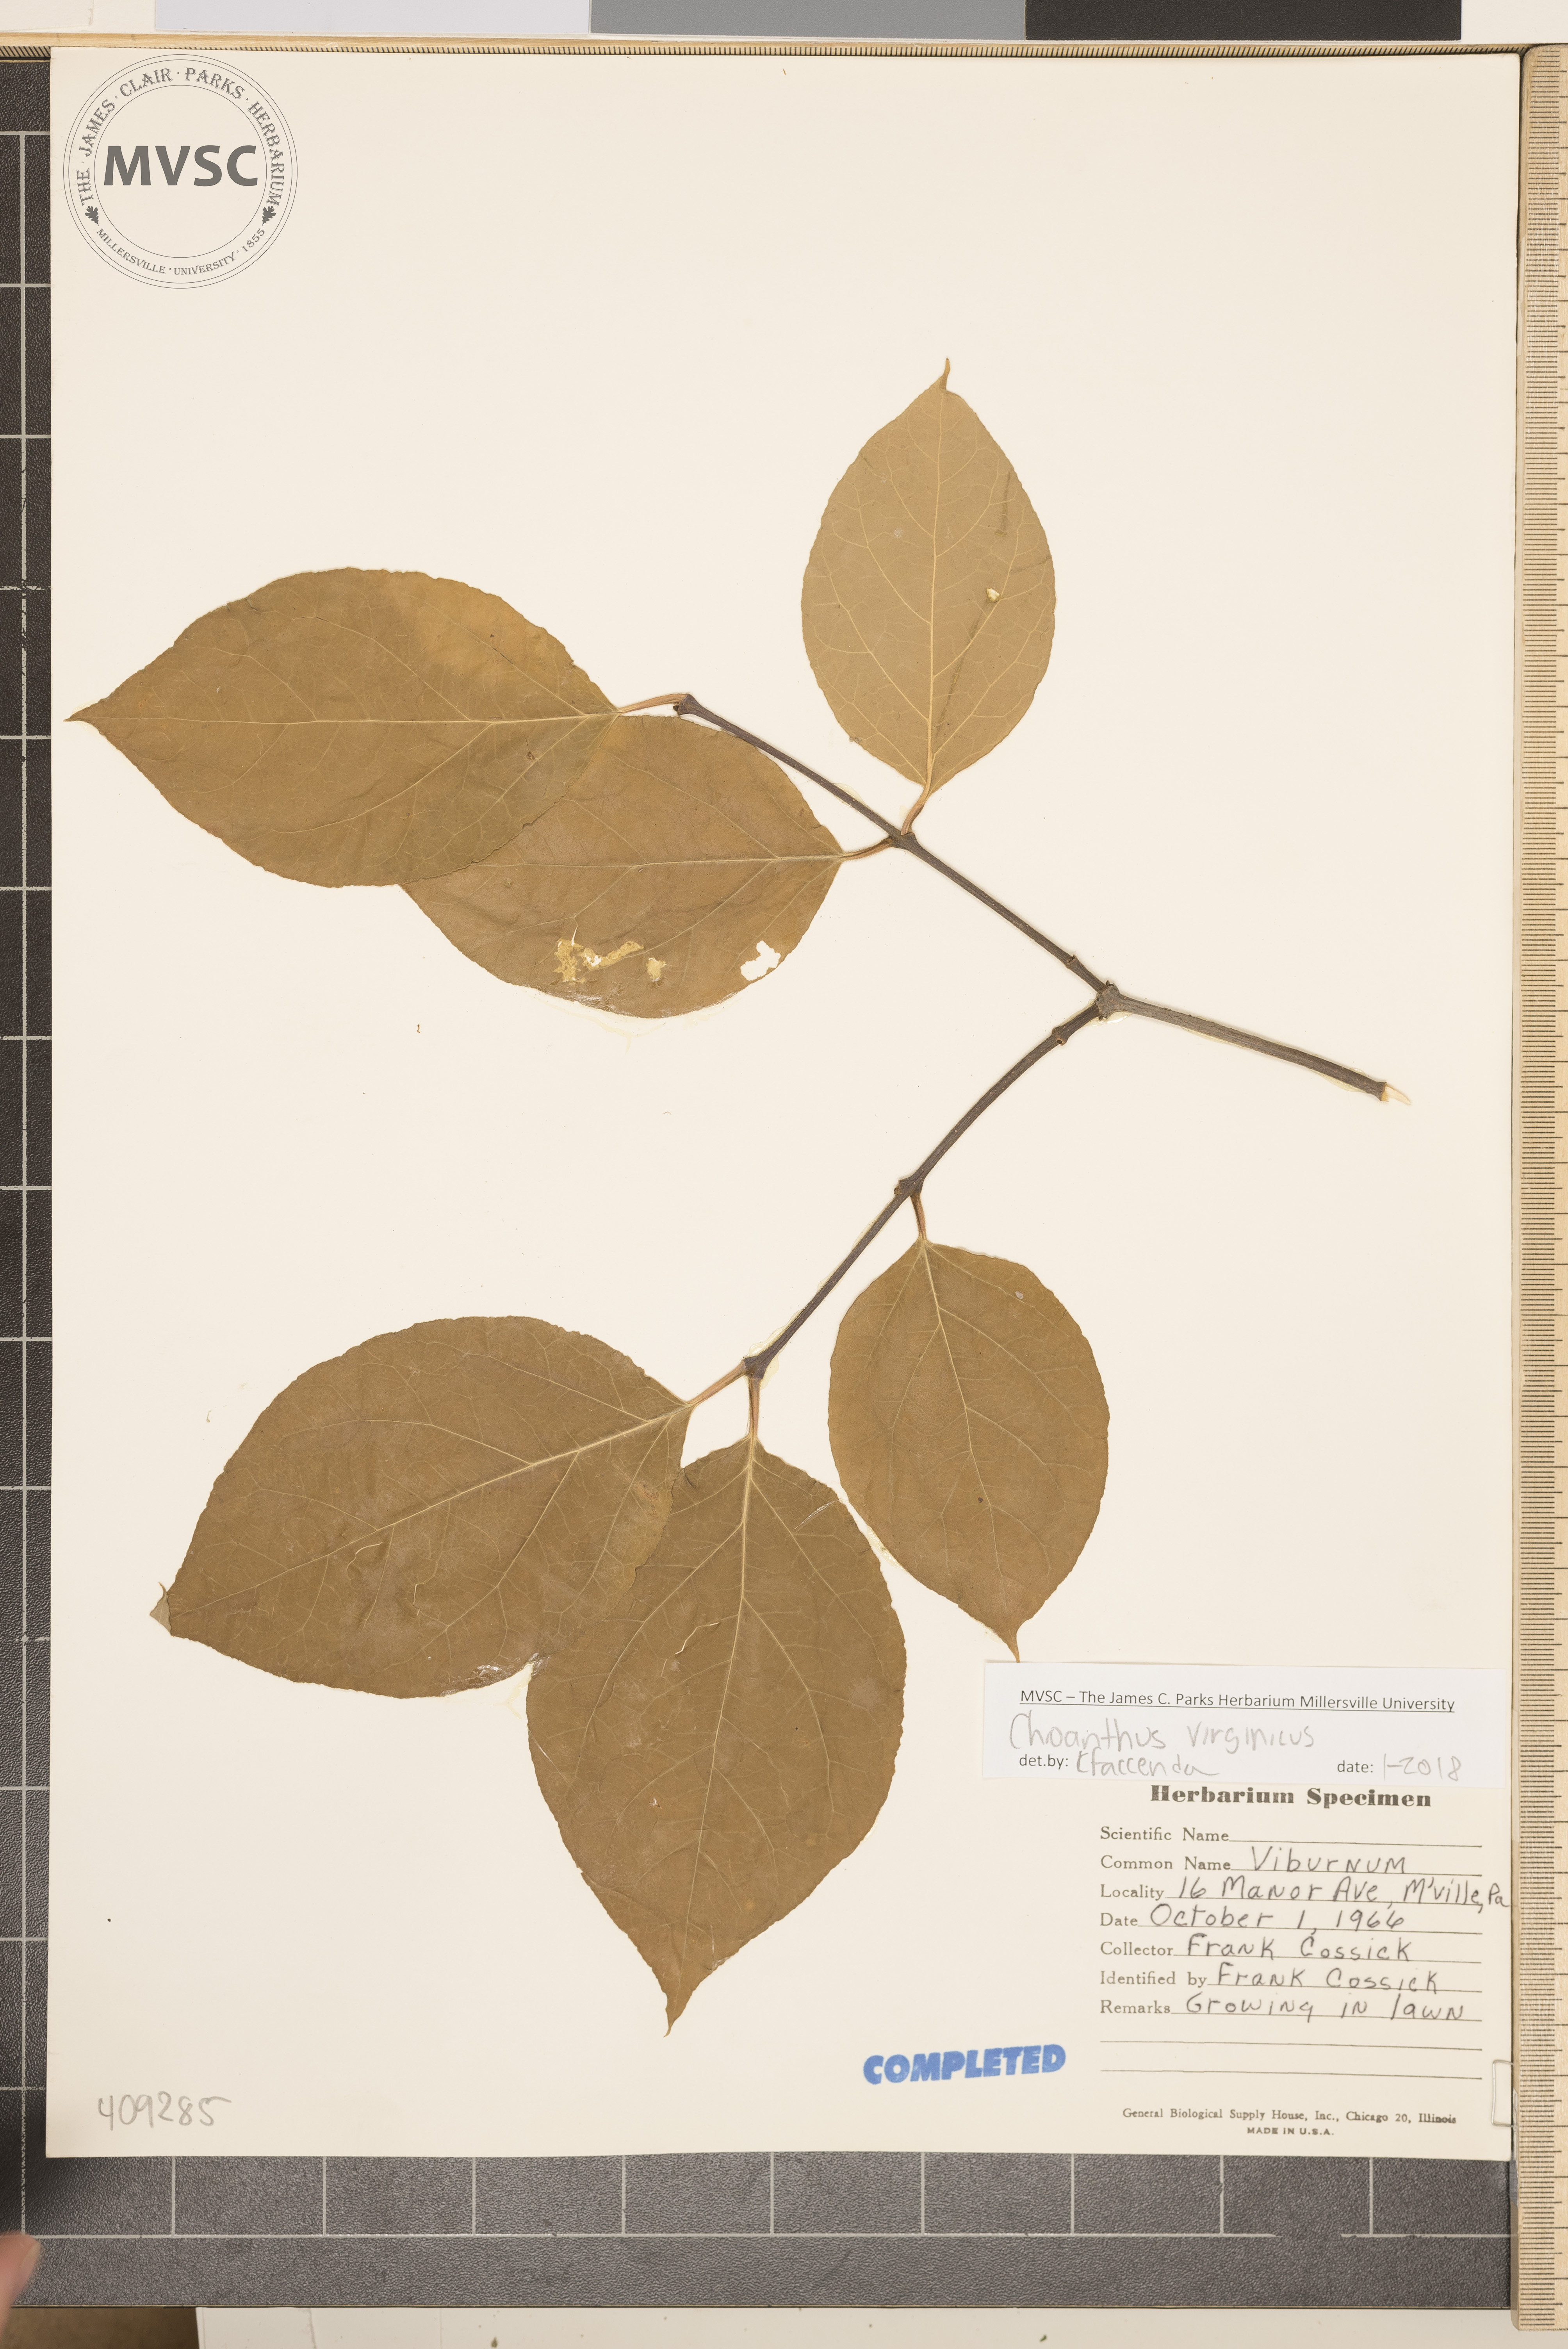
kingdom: Plantae
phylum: Tracheophyta
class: Magnoliopsida
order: Lamiales
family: Oleaceae
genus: Chionanthus
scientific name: Chionanthus virginicus
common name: American fringetree
